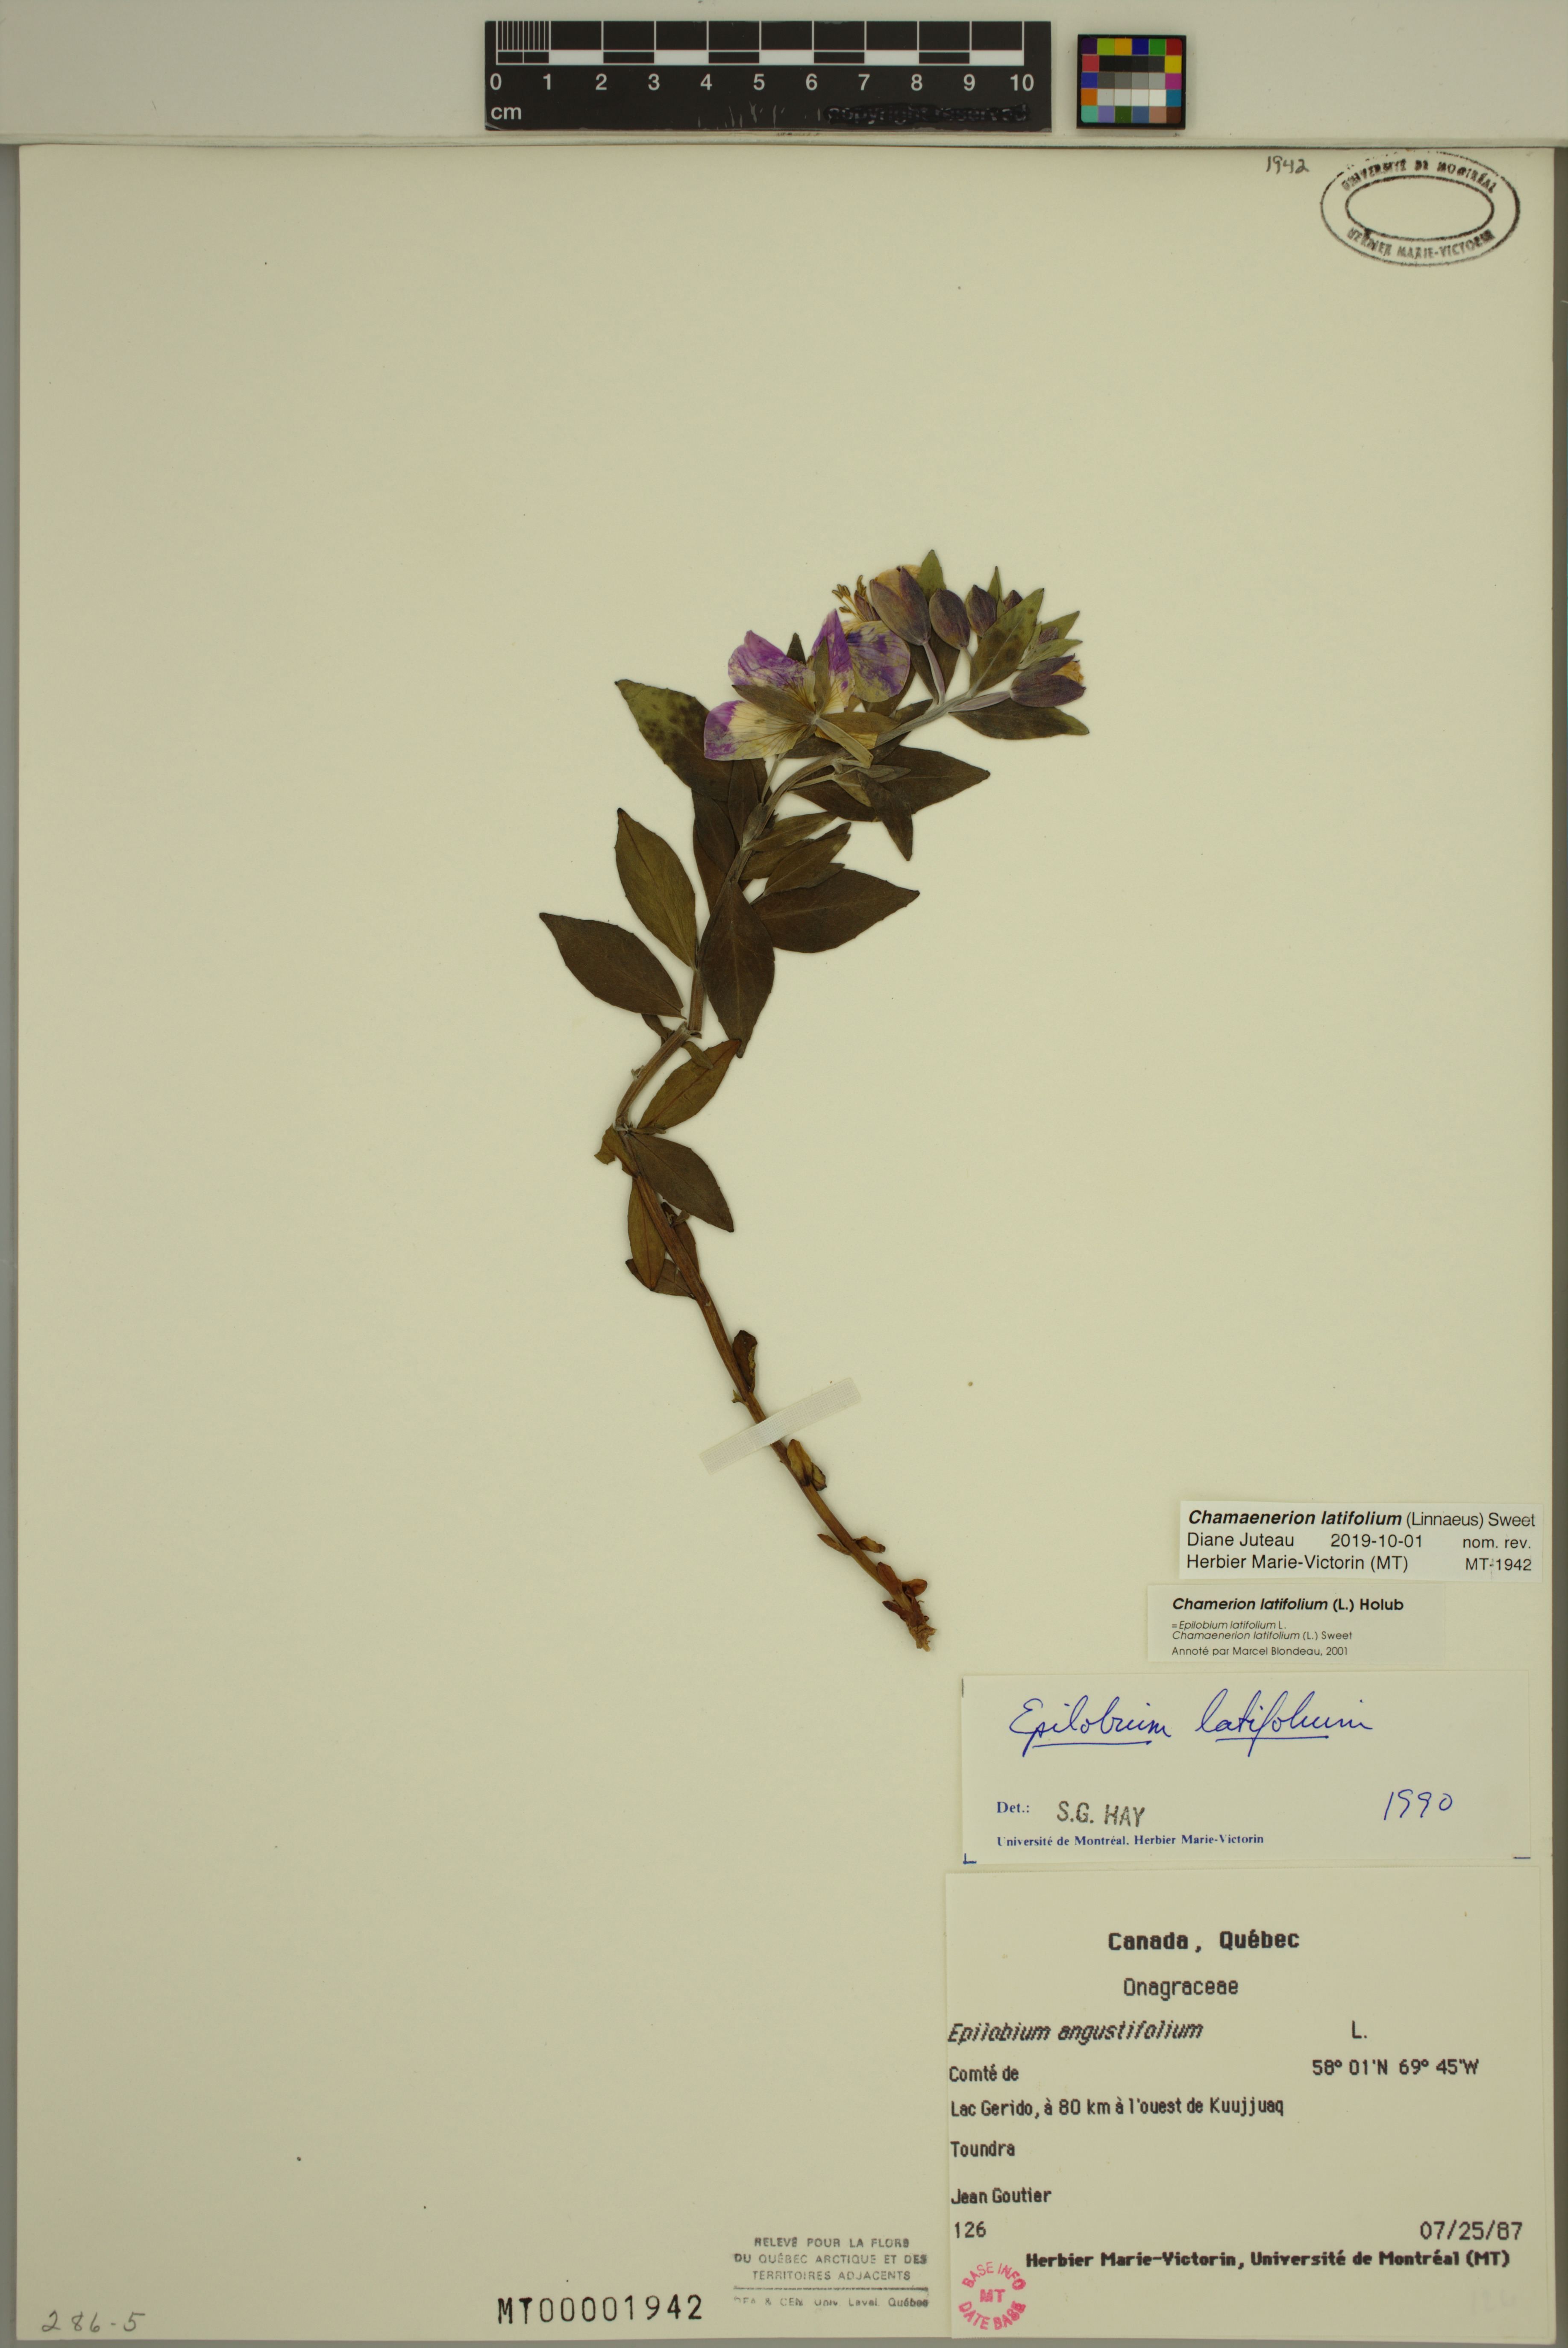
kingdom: Plantae
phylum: Tracheophyta
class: Magnoliopsida
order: Myrtales
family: Onagraceae
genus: Chamaenerion
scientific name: Chamaenerion latifolium
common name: Dwarf fireweed
